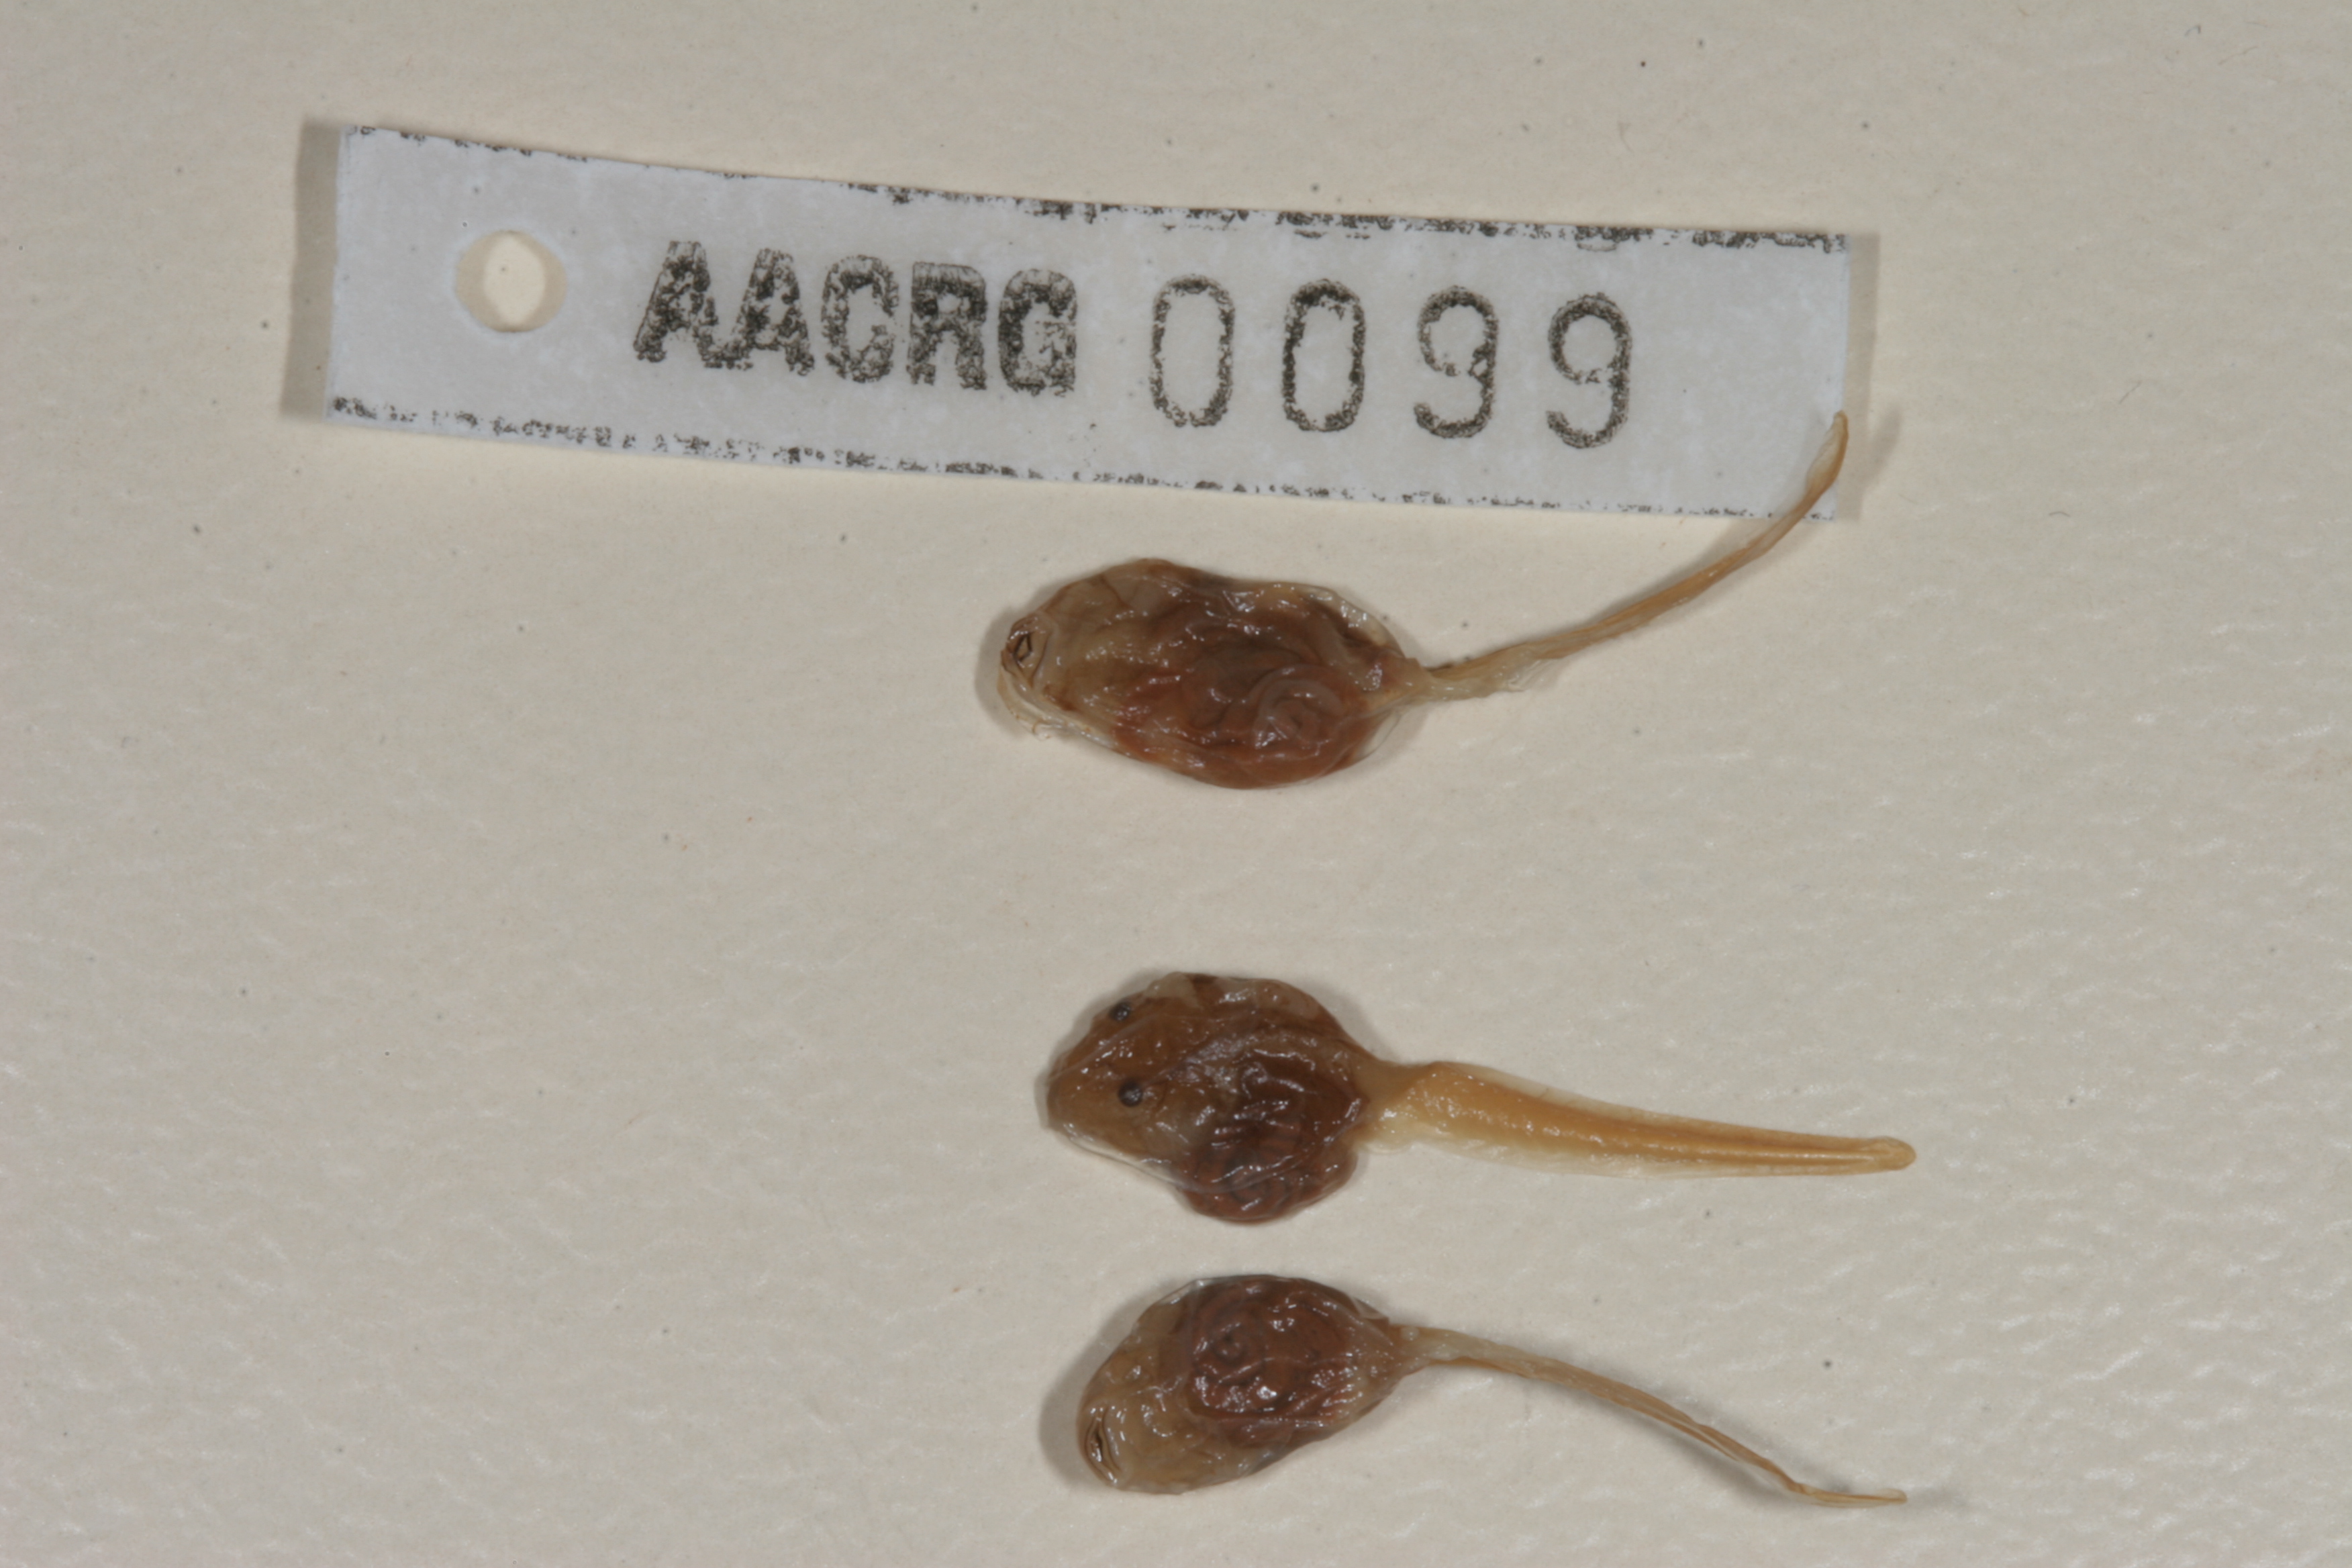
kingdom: Animalia
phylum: Chordata
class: Amphibia
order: Anura
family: Bufonidae
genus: Schismaderma
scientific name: Schismaderma carens
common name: African split-skin toad
